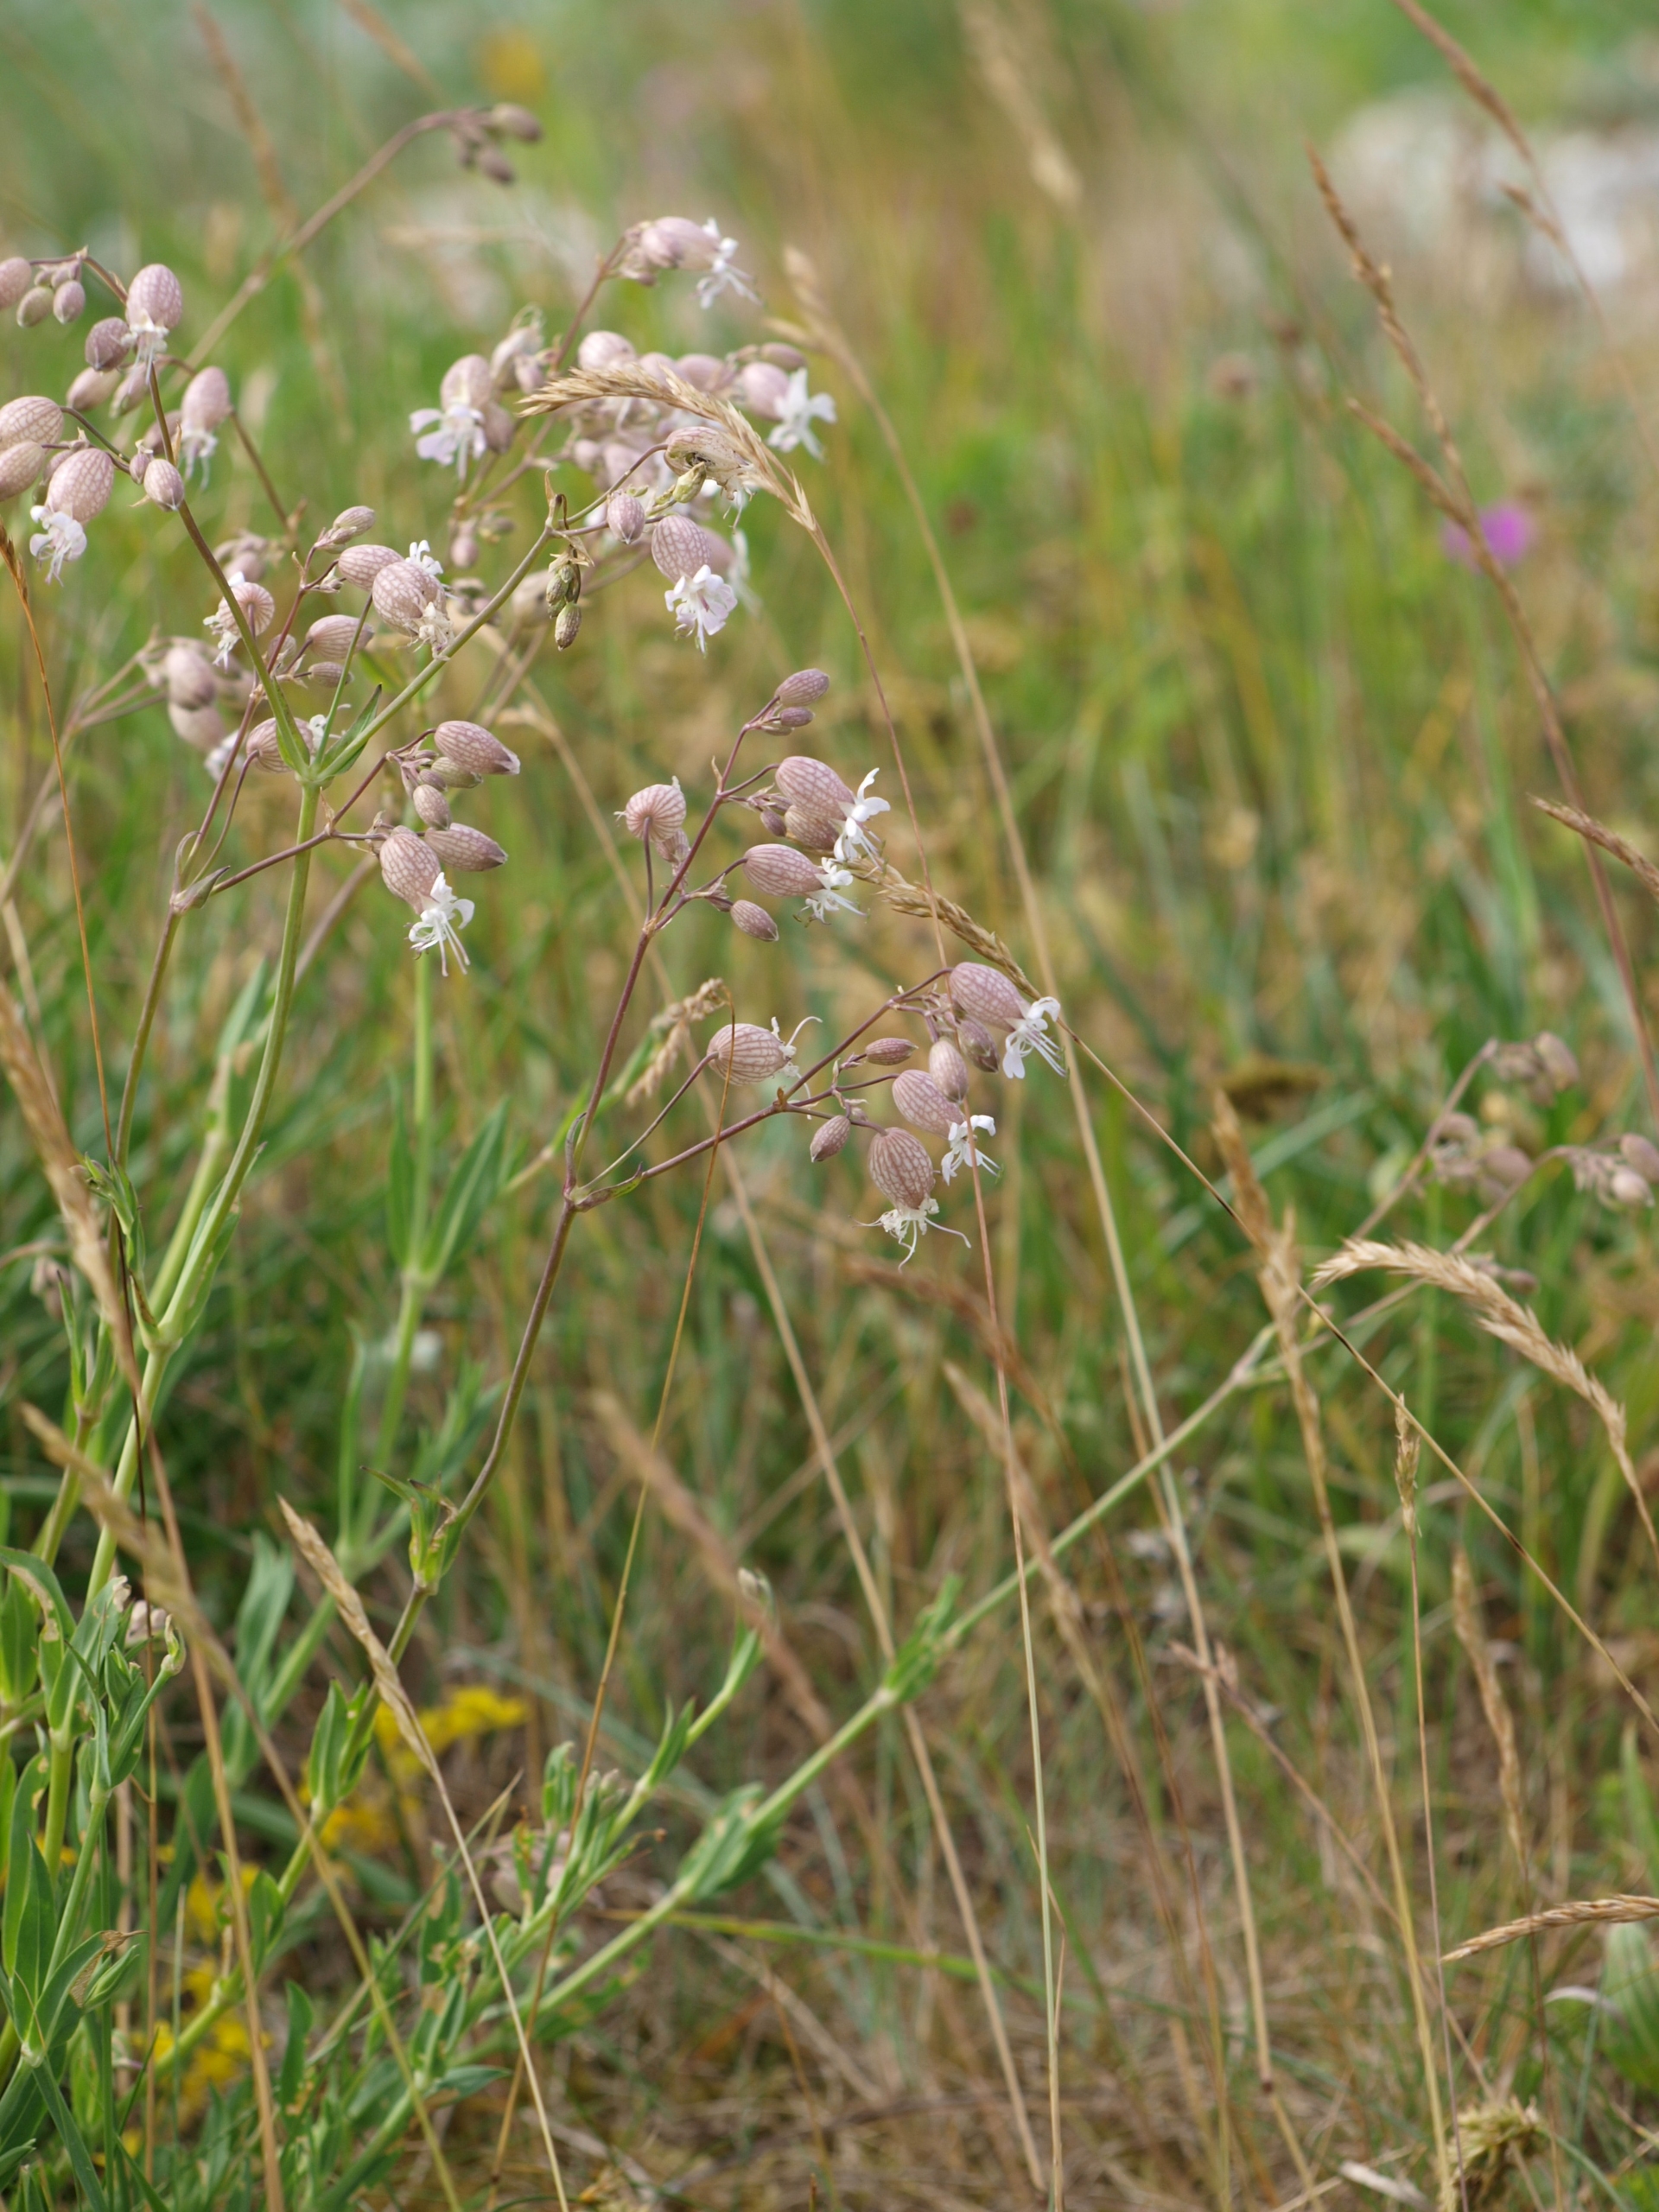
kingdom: Plantae
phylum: Tracheophyta
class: Magnoliopsida
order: Caryophyllales
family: Caryophyllaceae
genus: Silene
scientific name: Silene vulgaris
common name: Blæresmælde
